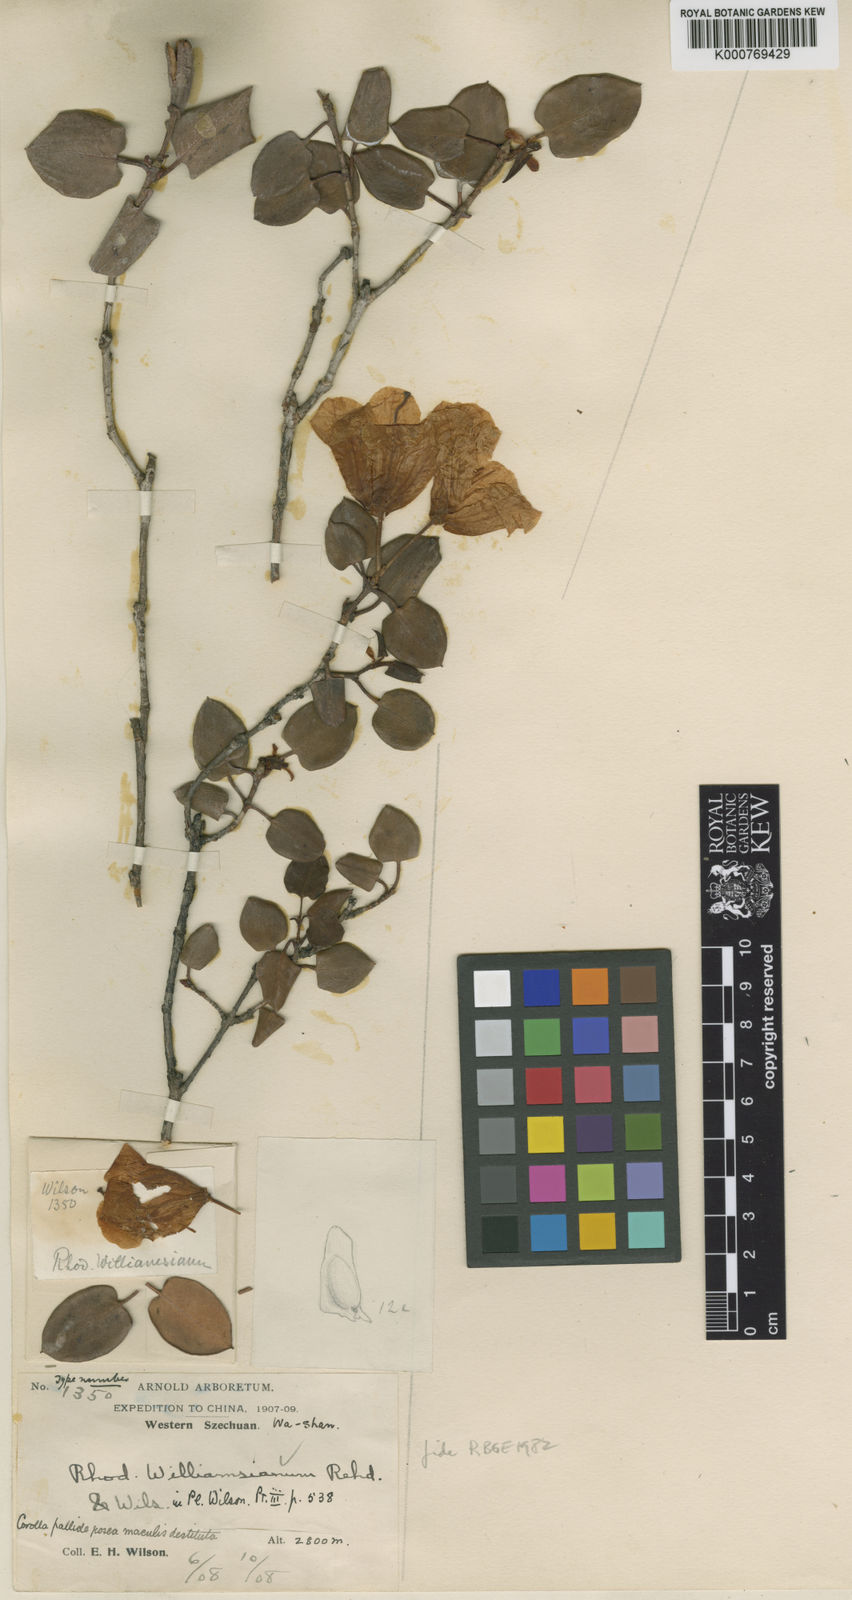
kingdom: Plantae
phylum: Tracheophyta
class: Magnoliopsida
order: Ericales
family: Ericaceae
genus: Rhododendron
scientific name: Rhododendron williamsianum
